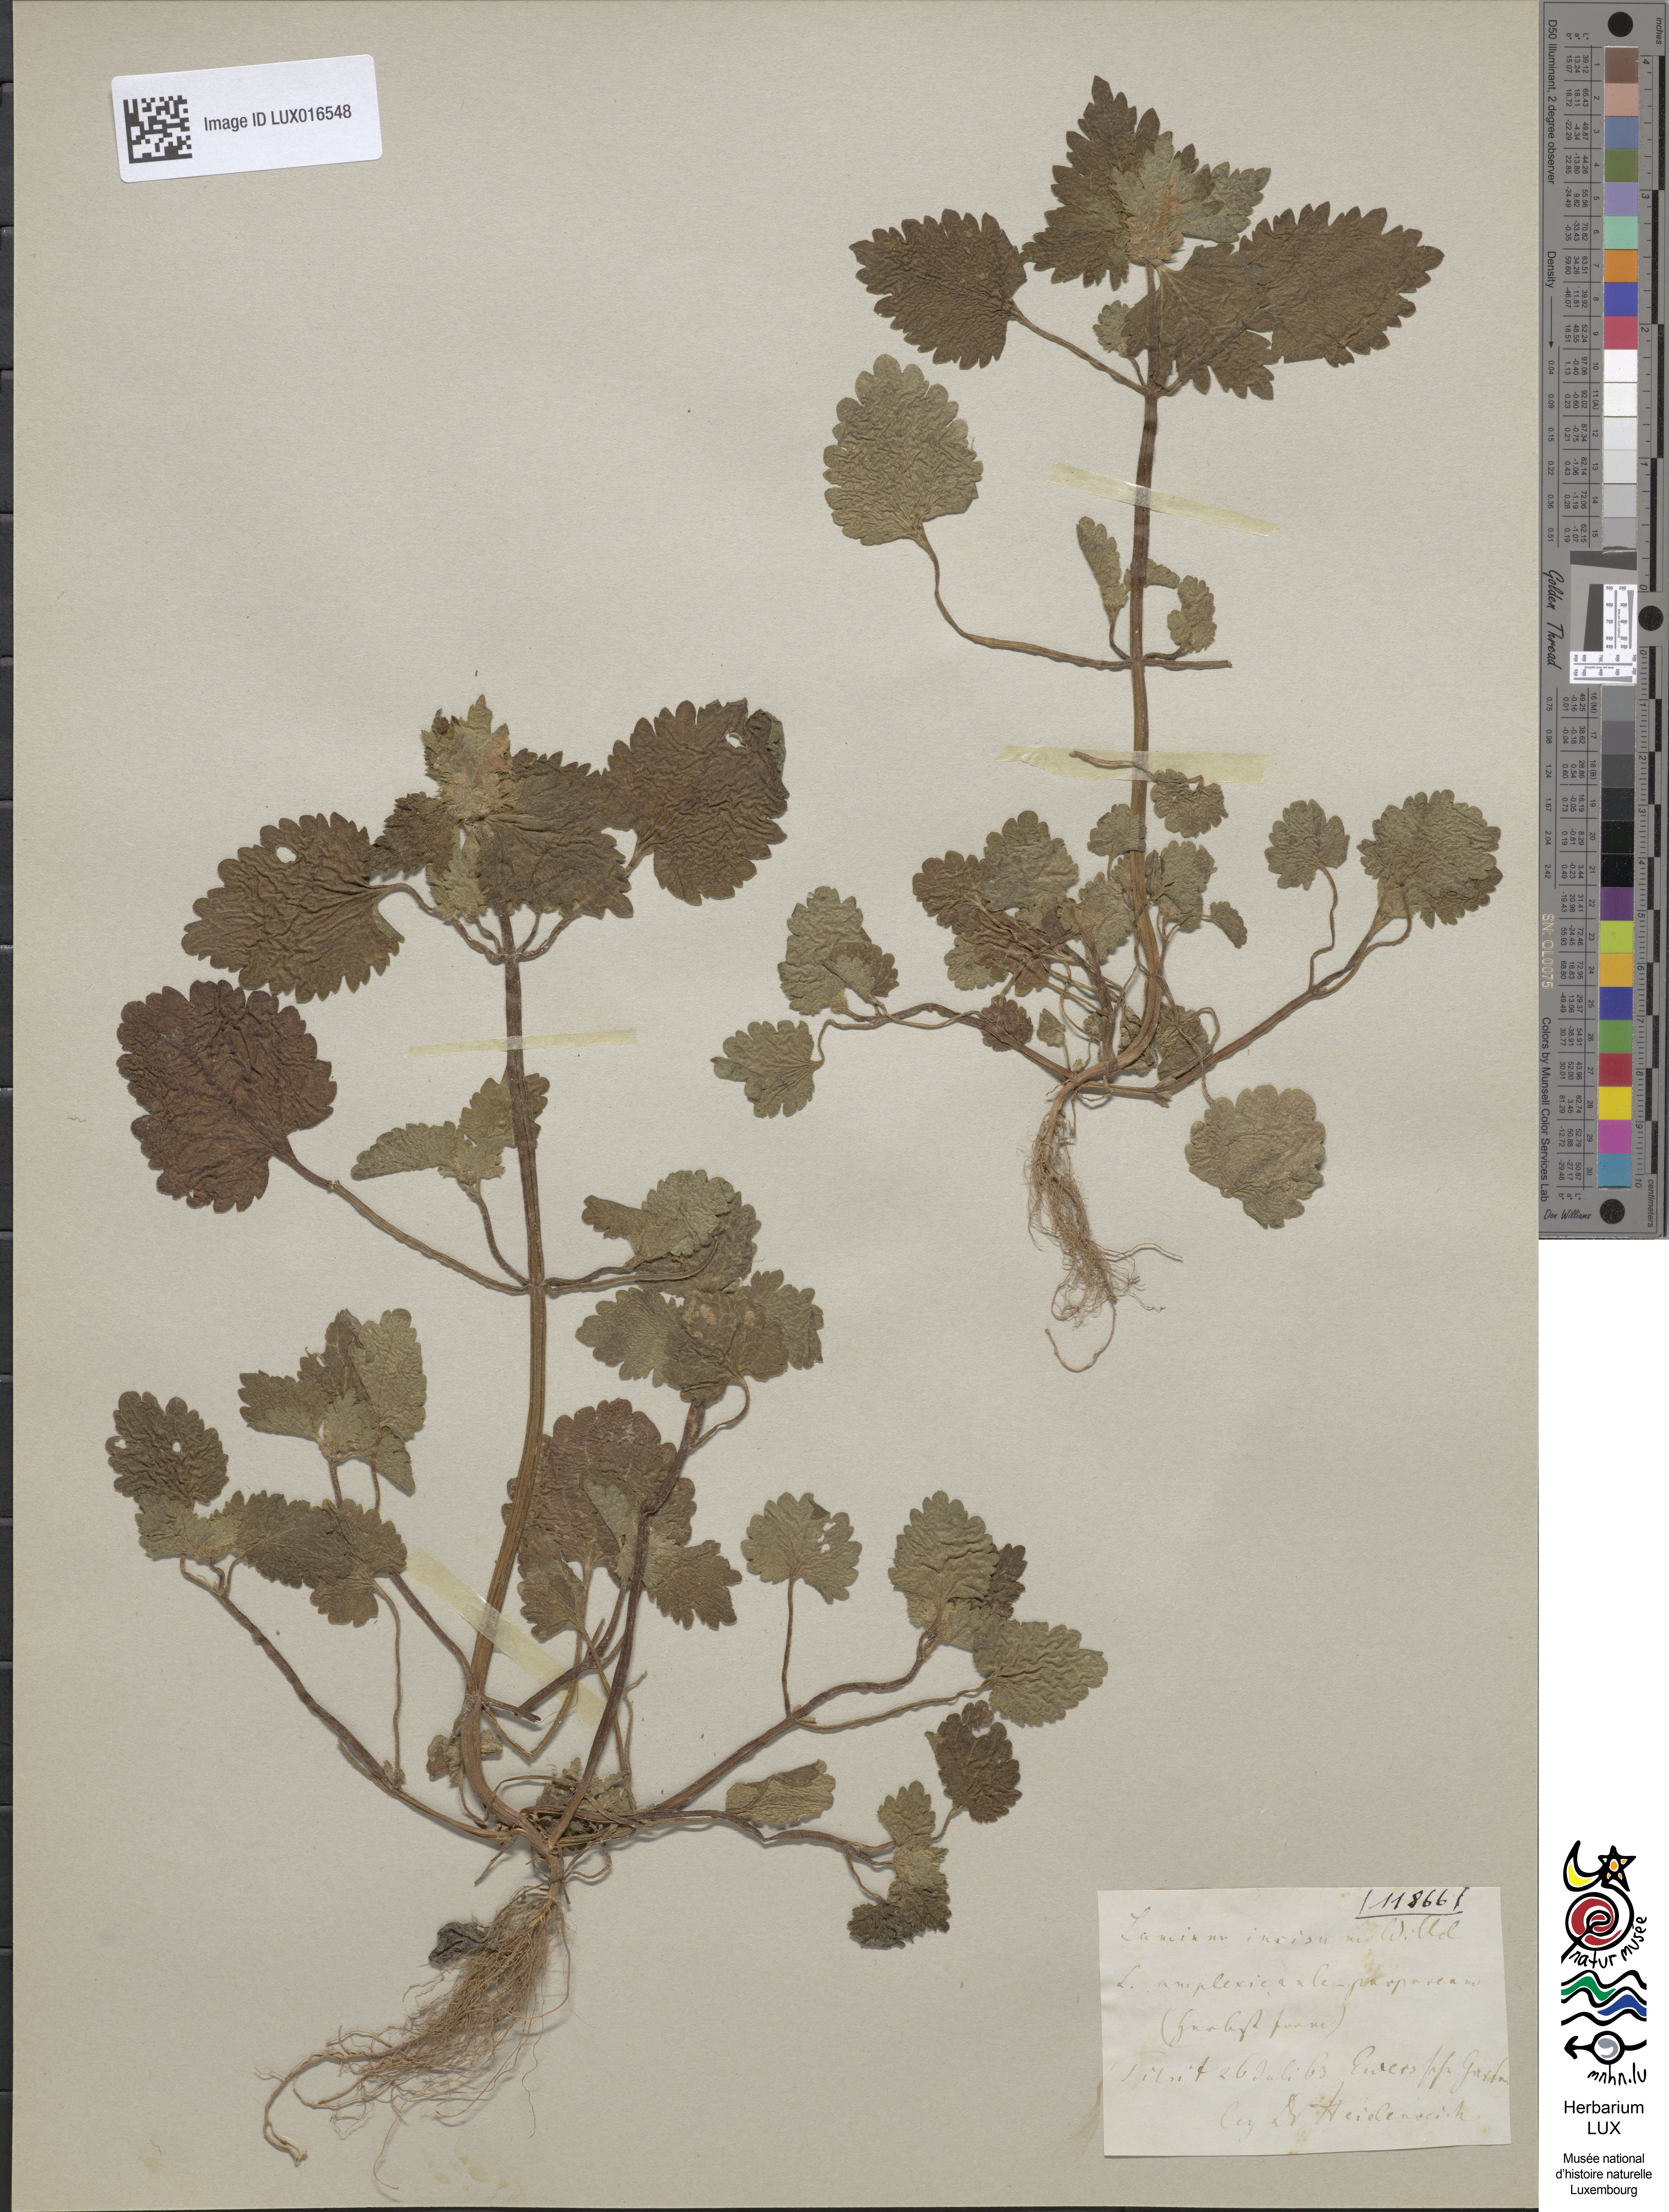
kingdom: Plantae
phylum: Tracheophyta
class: Magnoliopsida
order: Lamiales
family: Lamiaceae
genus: Lamium
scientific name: Lamium hybridum
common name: Cut-leaved dead-nettle
